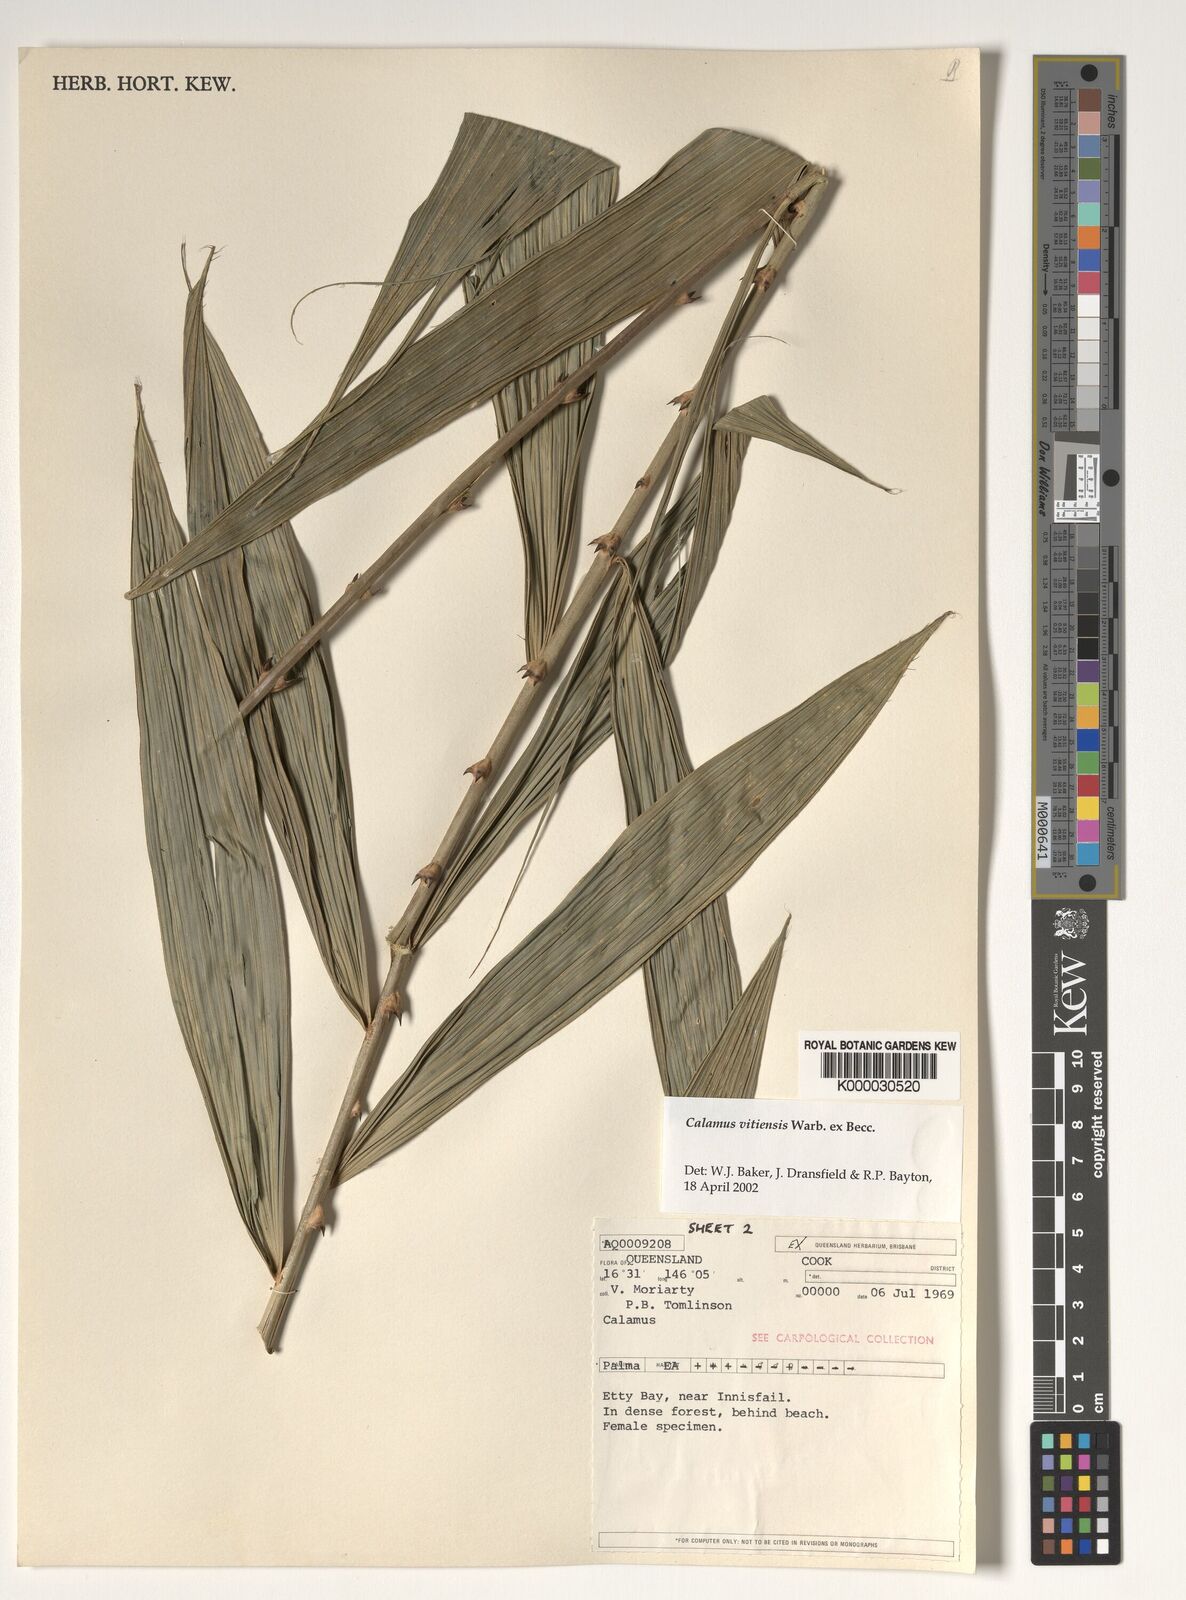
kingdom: Plantae
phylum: Tracheophyta
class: Liliopsida
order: Arecales
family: Arecaceae
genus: Calamus
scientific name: Calamus vitiensis
